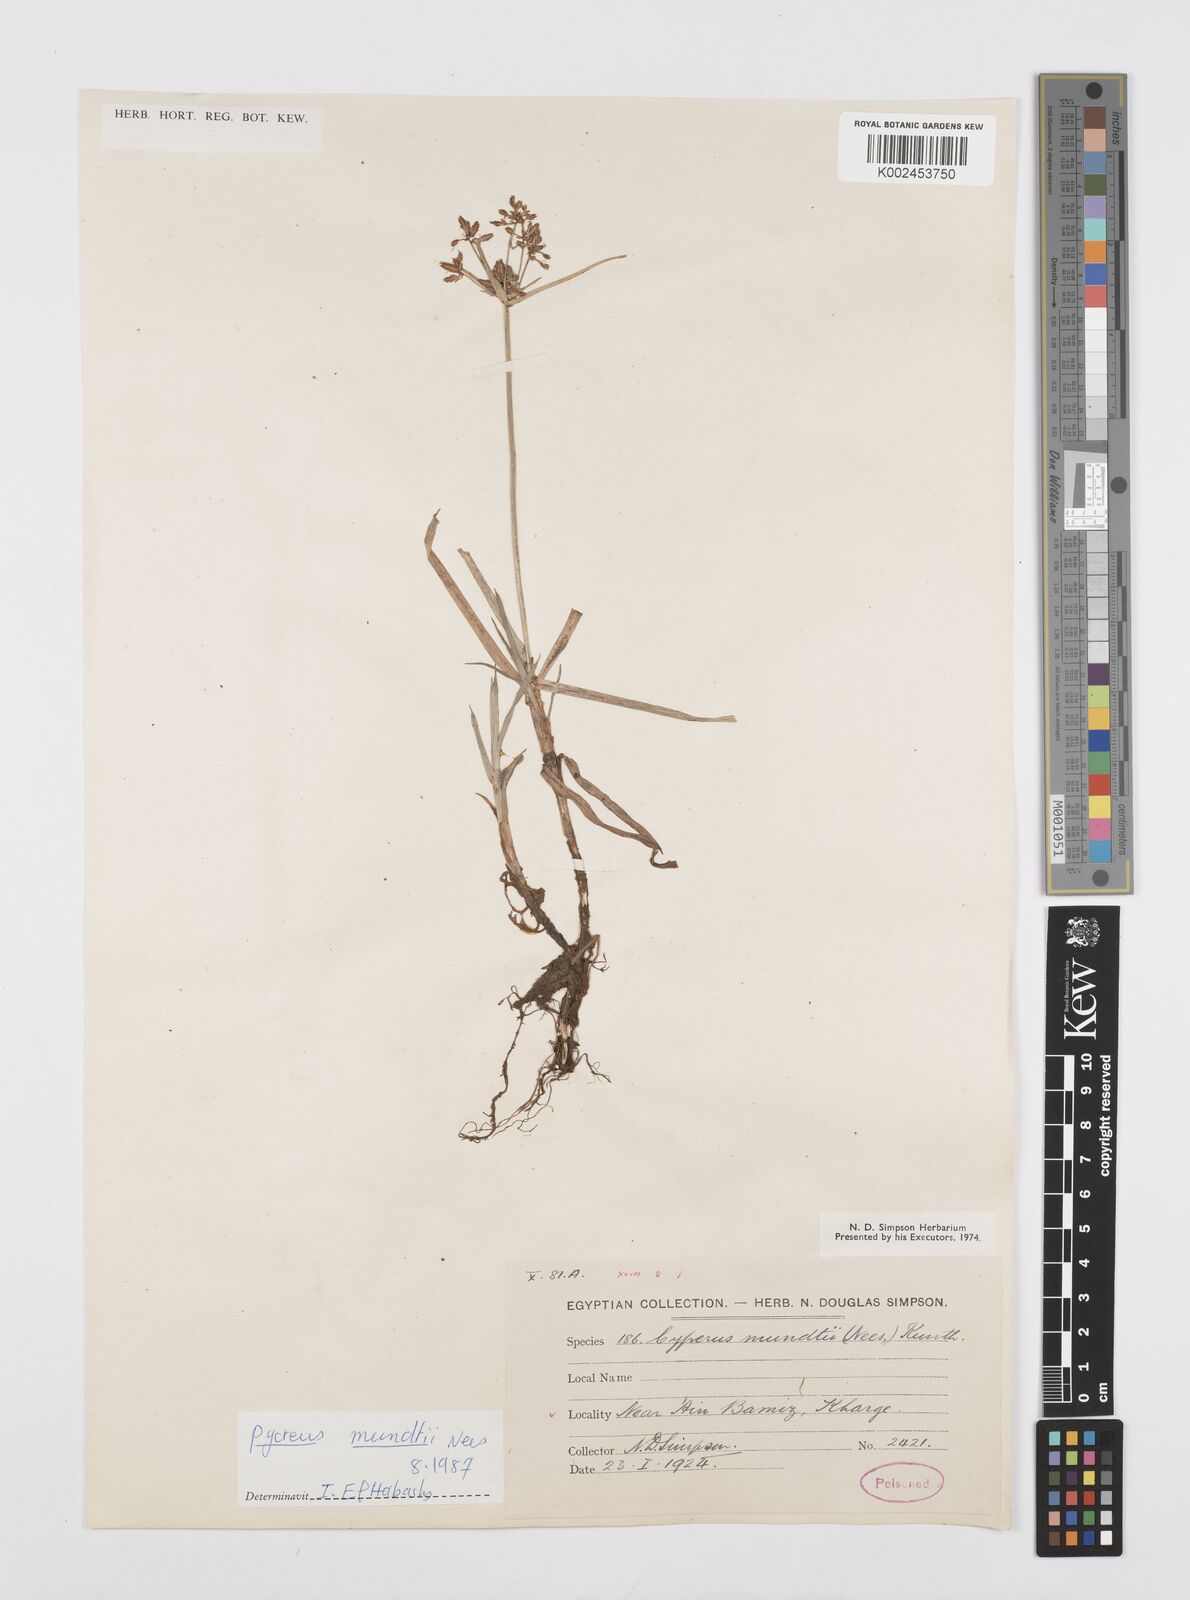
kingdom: Plantae
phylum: Tracheophyta
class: Liliopsida
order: Poales
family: Cyperaceae
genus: Cyperus
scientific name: Cyperus mundii
